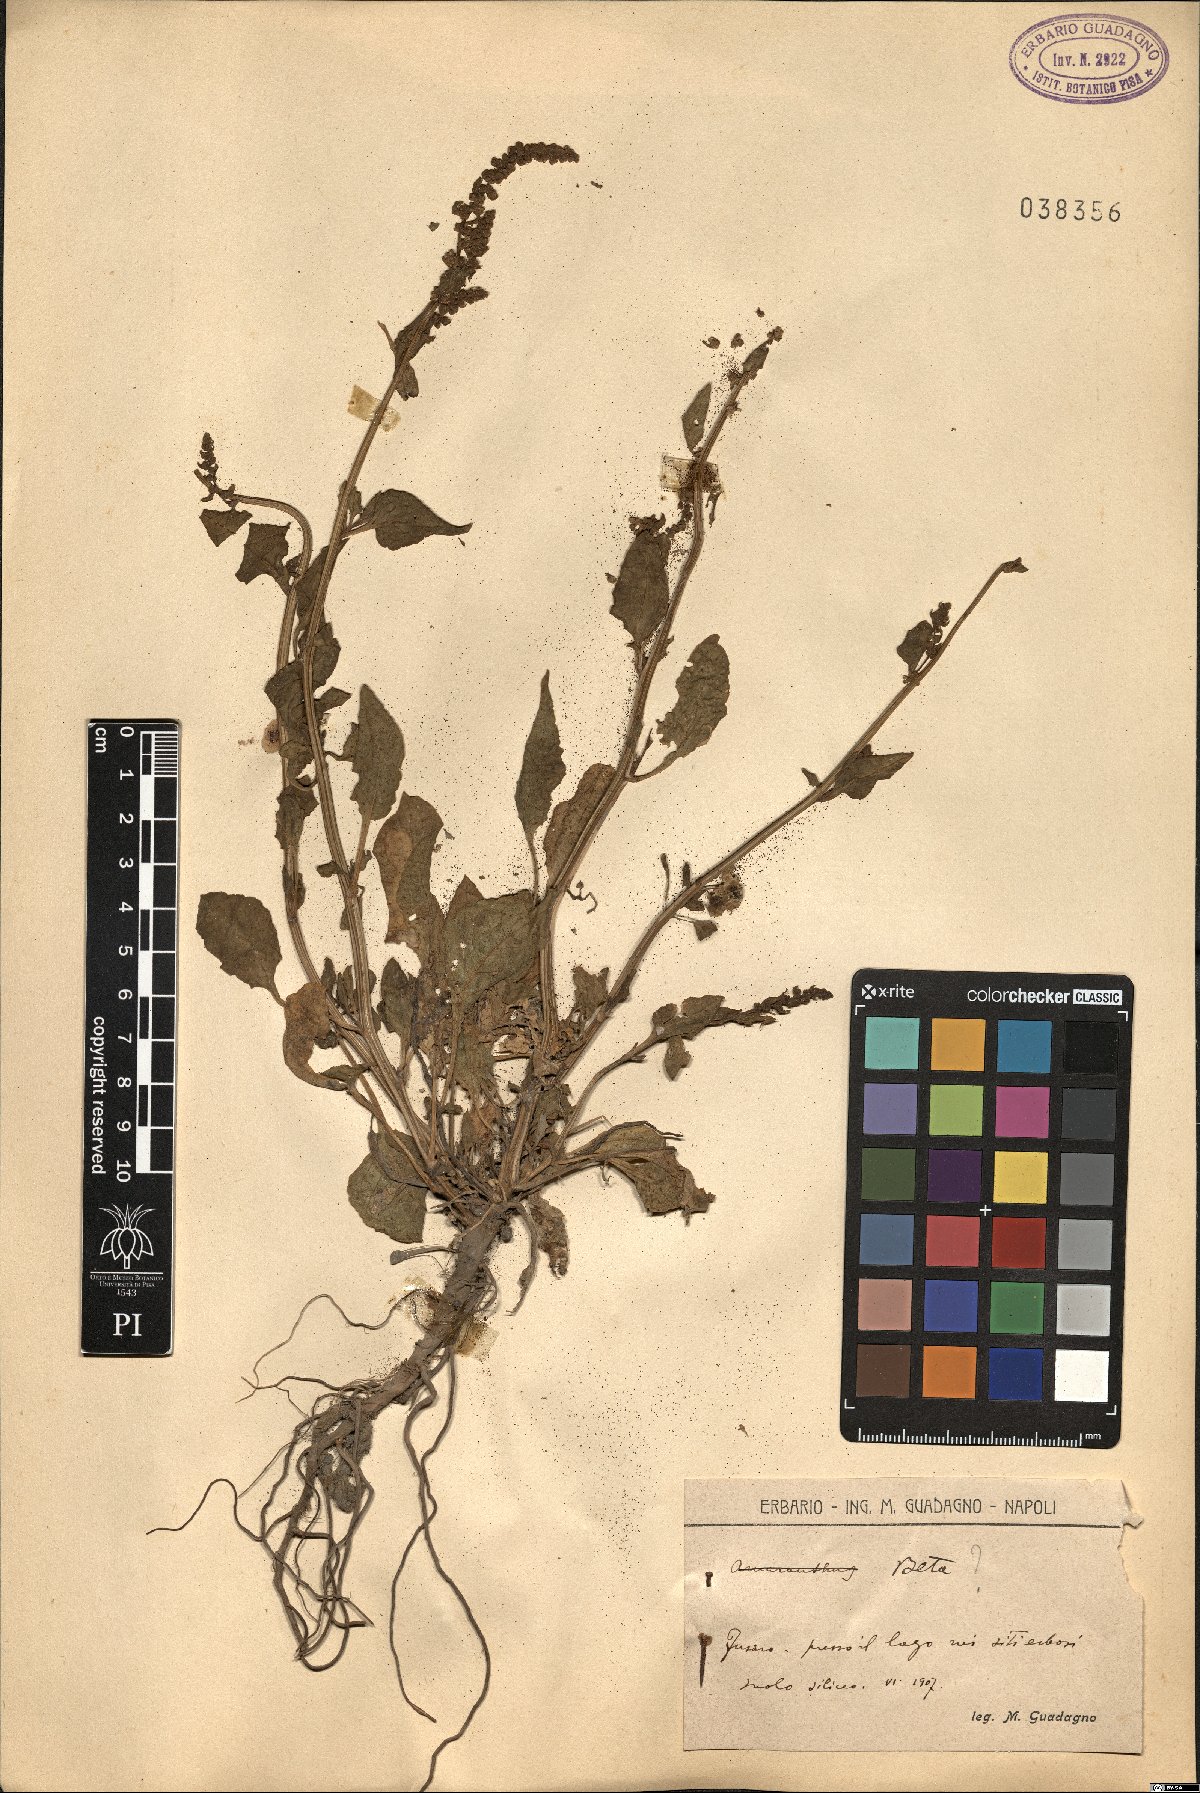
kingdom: Plantae
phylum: Tracheophyta
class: Magnoliopsida
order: Caryophyllales
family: Amaranthaceae
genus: Beta
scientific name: Beta
